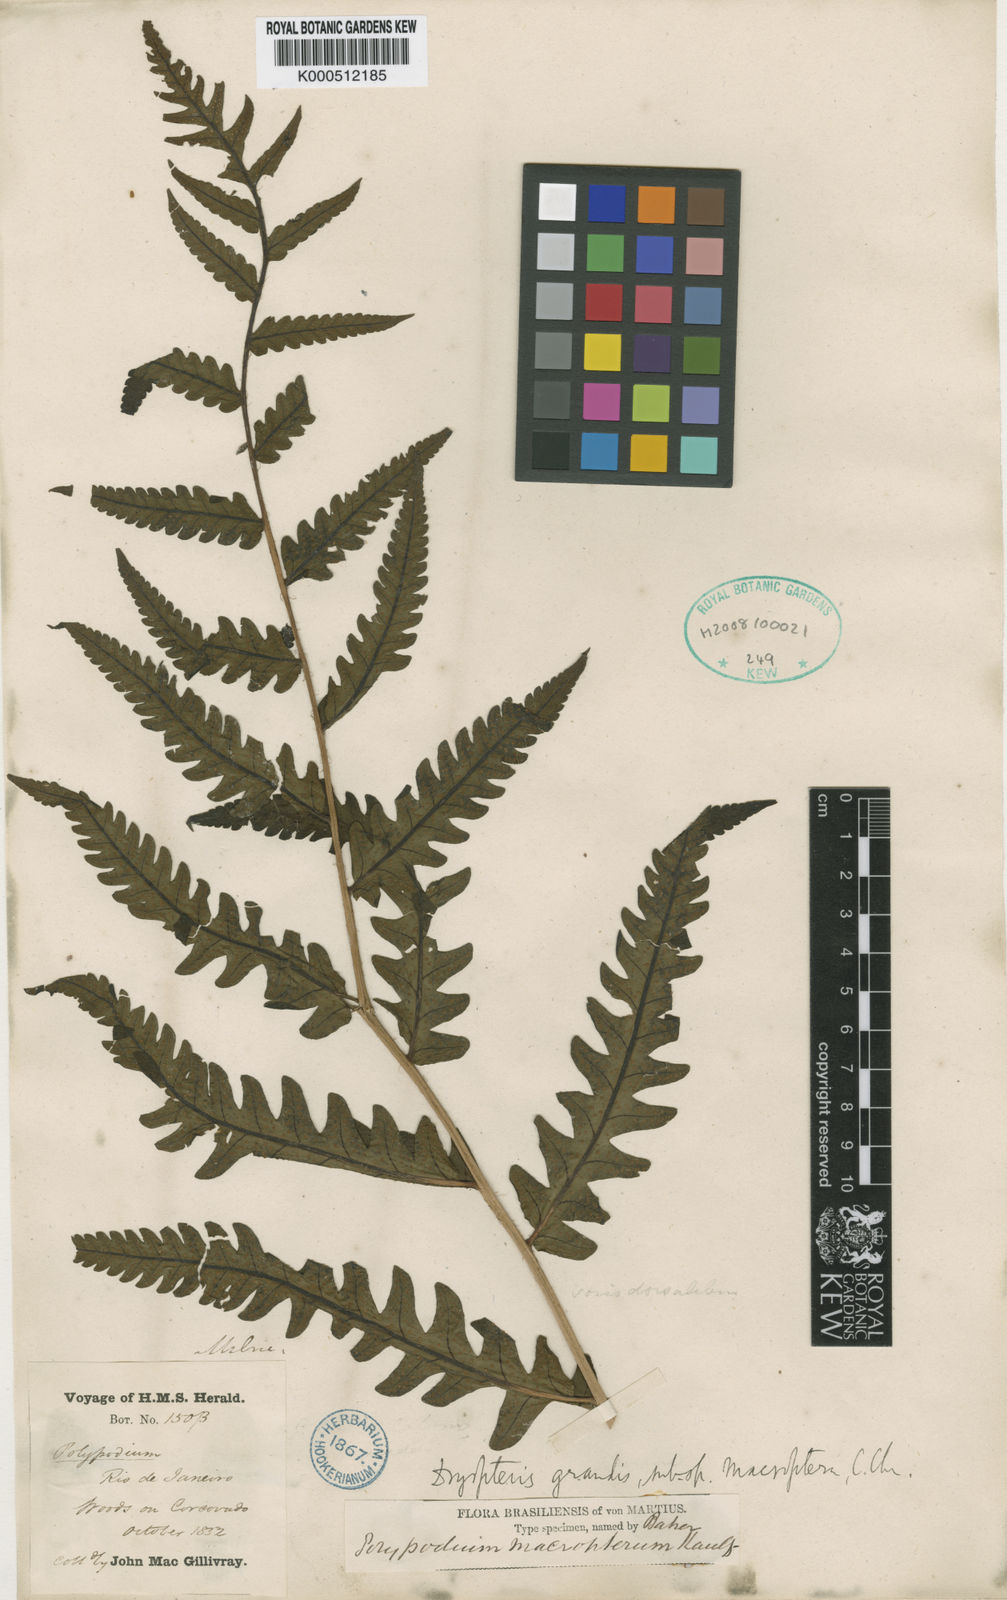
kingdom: Plantae
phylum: Tracheophyta
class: Polypodiopsida
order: Polypodiales
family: Dryopteridaceae
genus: Megalastrum
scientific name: Megalastrum grande
